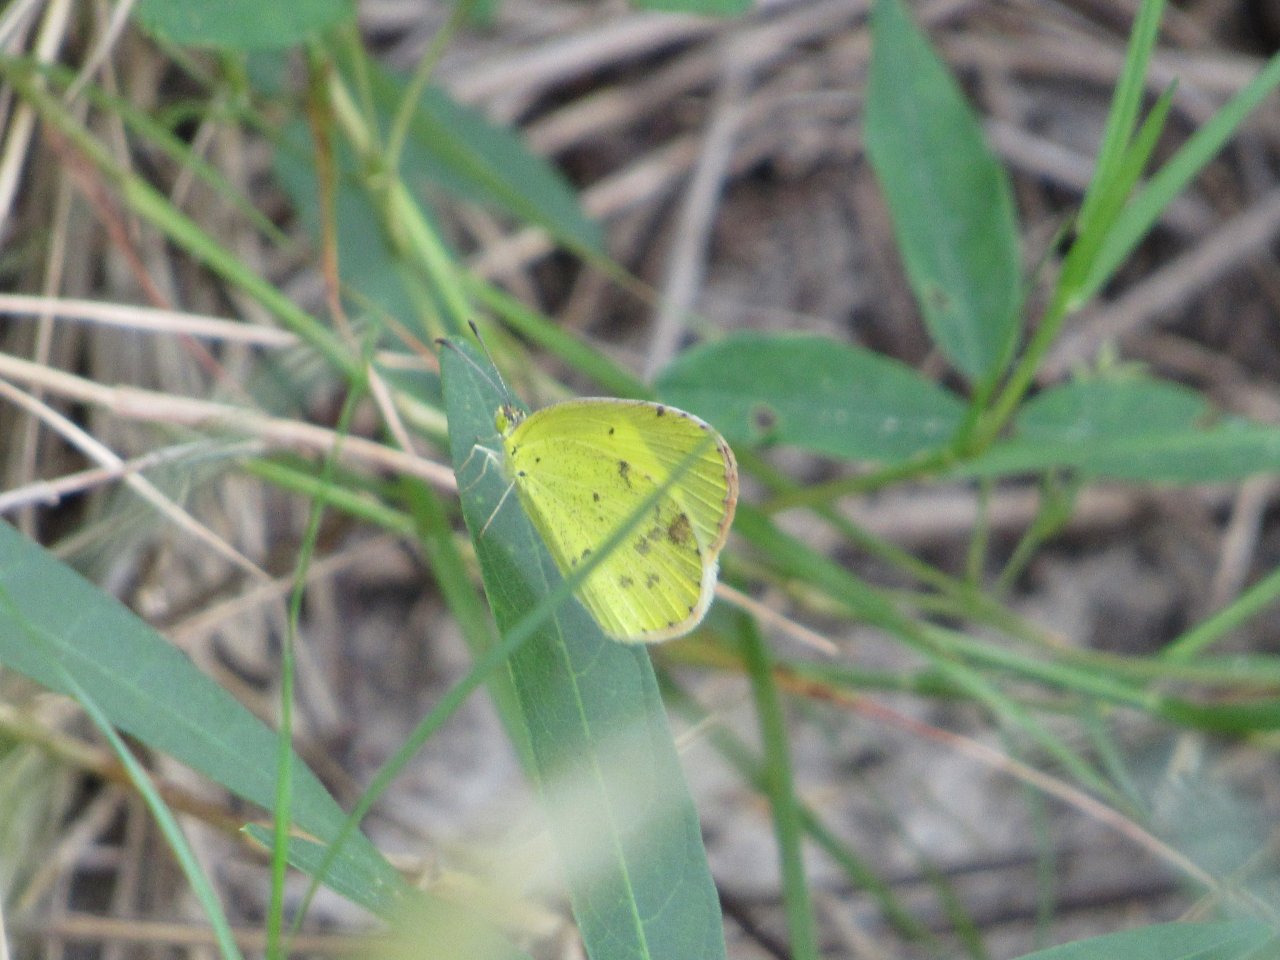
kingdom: Animalia
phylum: Arthropoda
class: Insecta
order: Lepidoptera
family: Pieridae
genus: Pyrisitia
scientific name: Pyrisitia lisa
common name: Little Yellow
